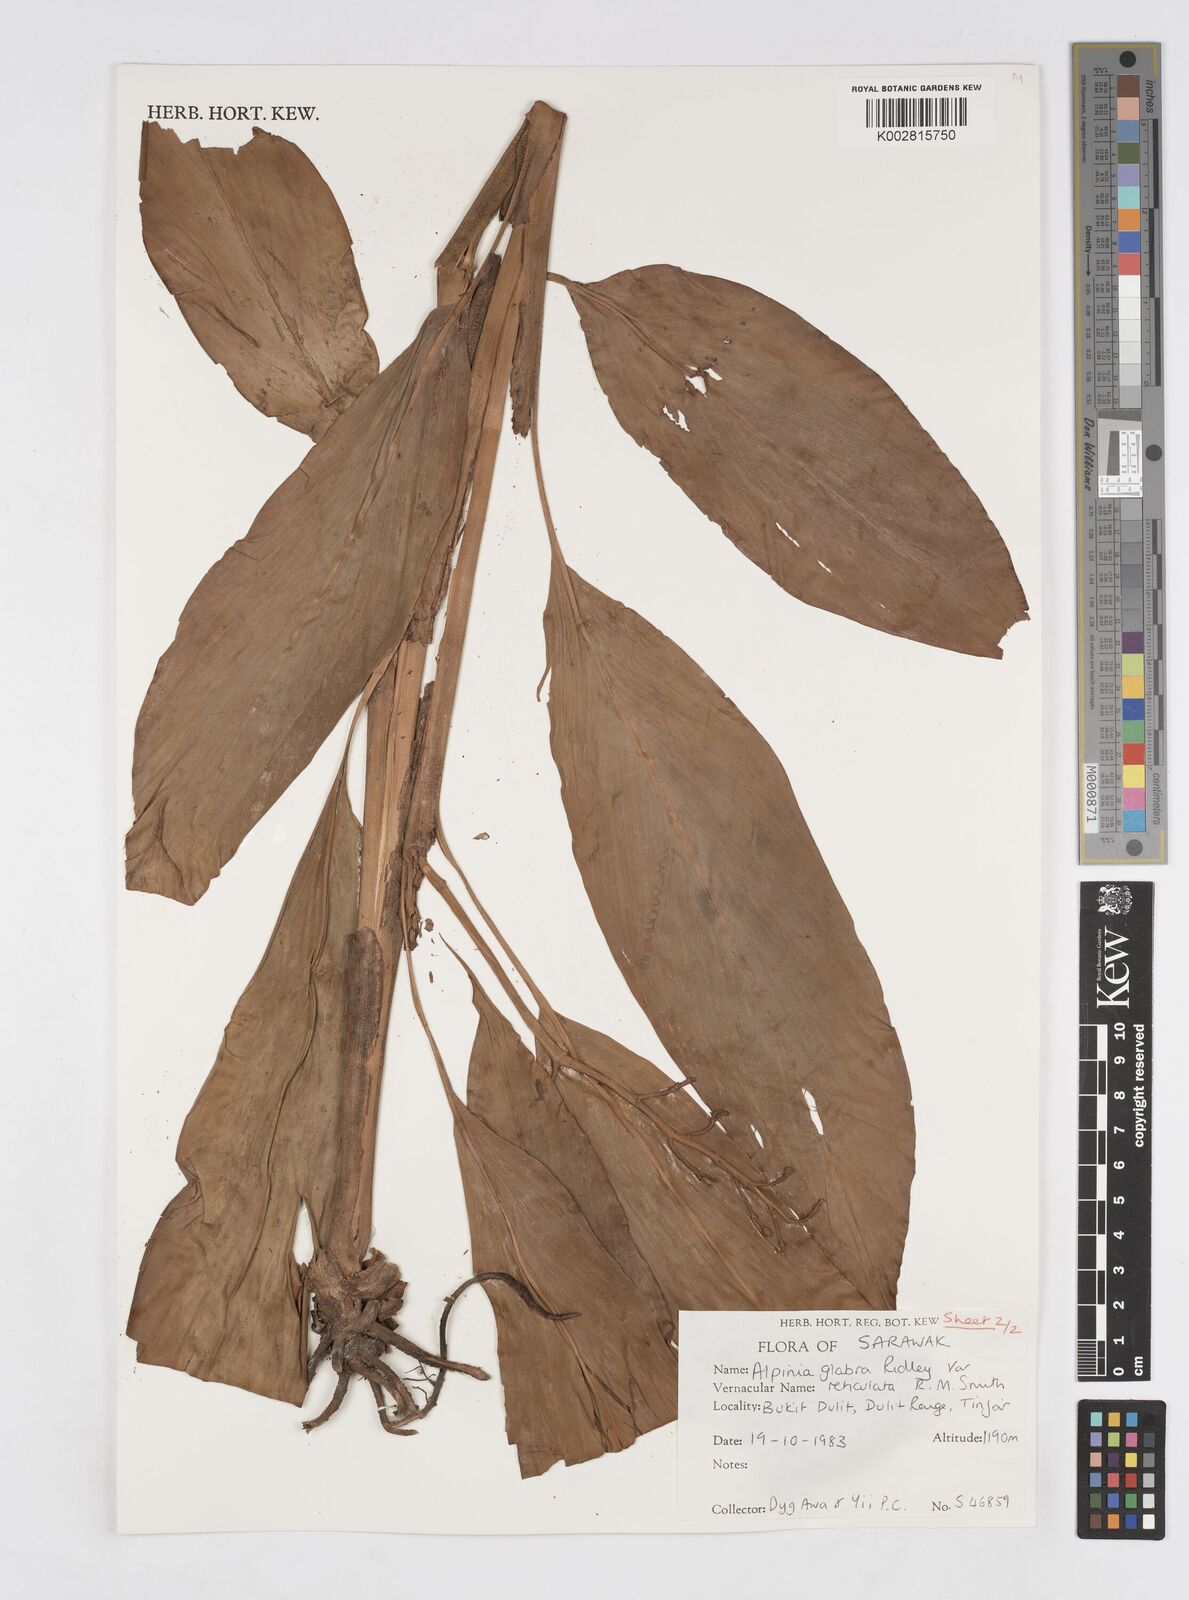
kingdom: Plantae
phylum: Tracheophyta
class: Liliopsida
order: Zingiberales
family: Zingiberaceae
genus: Alpinia
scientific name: Alpinia glabra
